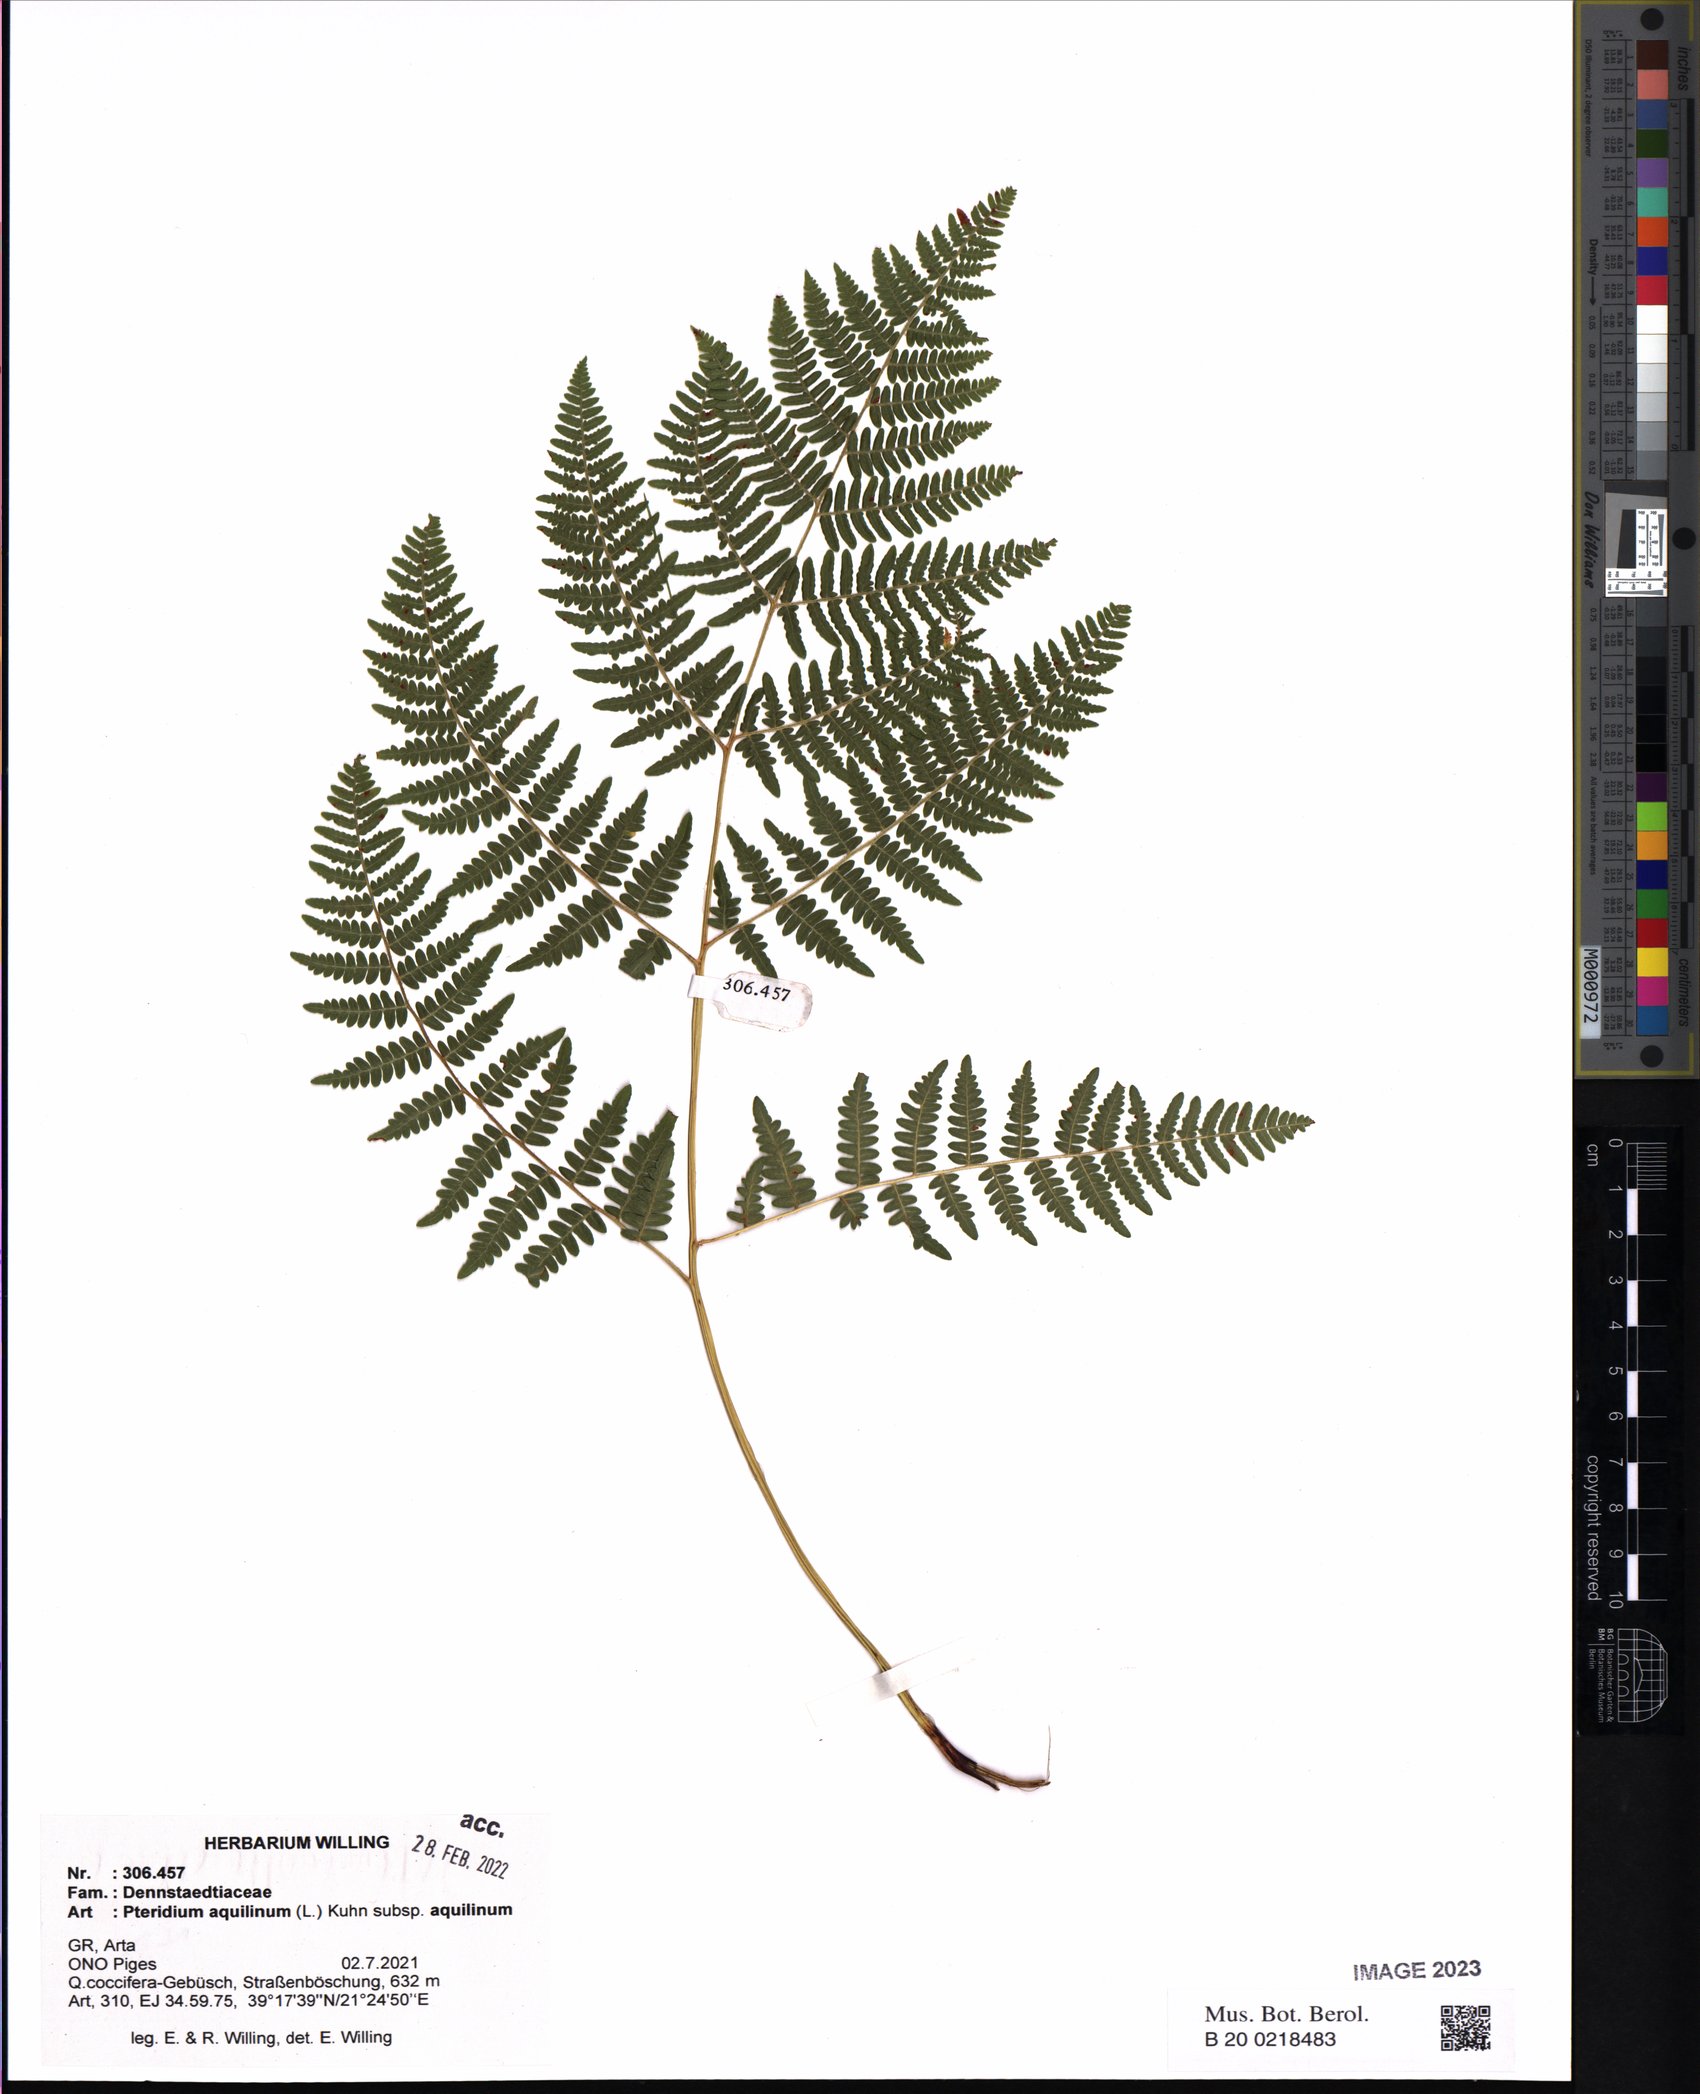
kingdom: Plantae
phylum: Tracheophyta
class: Polypodiopsida
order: Polypodiales
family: Dennstaedtiaceae
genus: Pteridium
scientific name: Pteridium aquilinum
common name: Bracken
